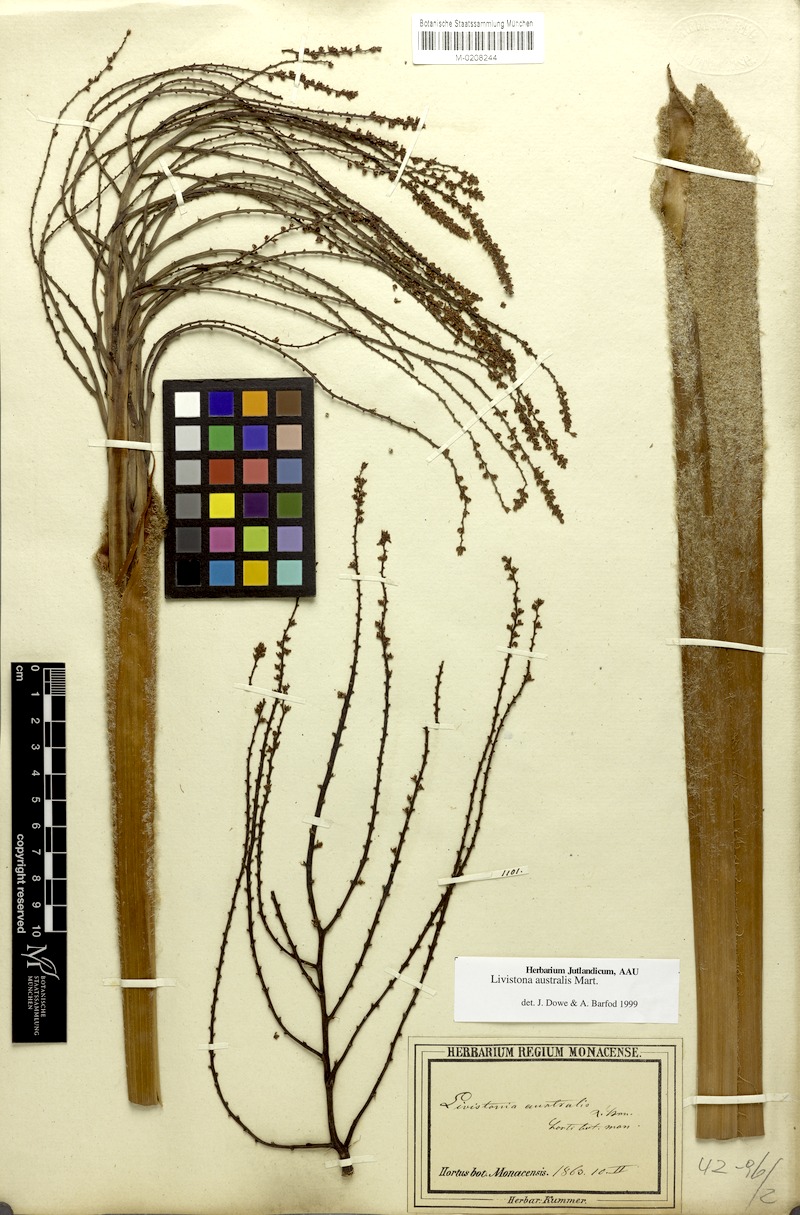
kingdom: Plantae
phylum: Tracheophyta
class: Liliopsida
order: Arecales
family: Arecaceae
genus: Livistona
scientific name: Livistona australis
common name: Cabbage fan palm
